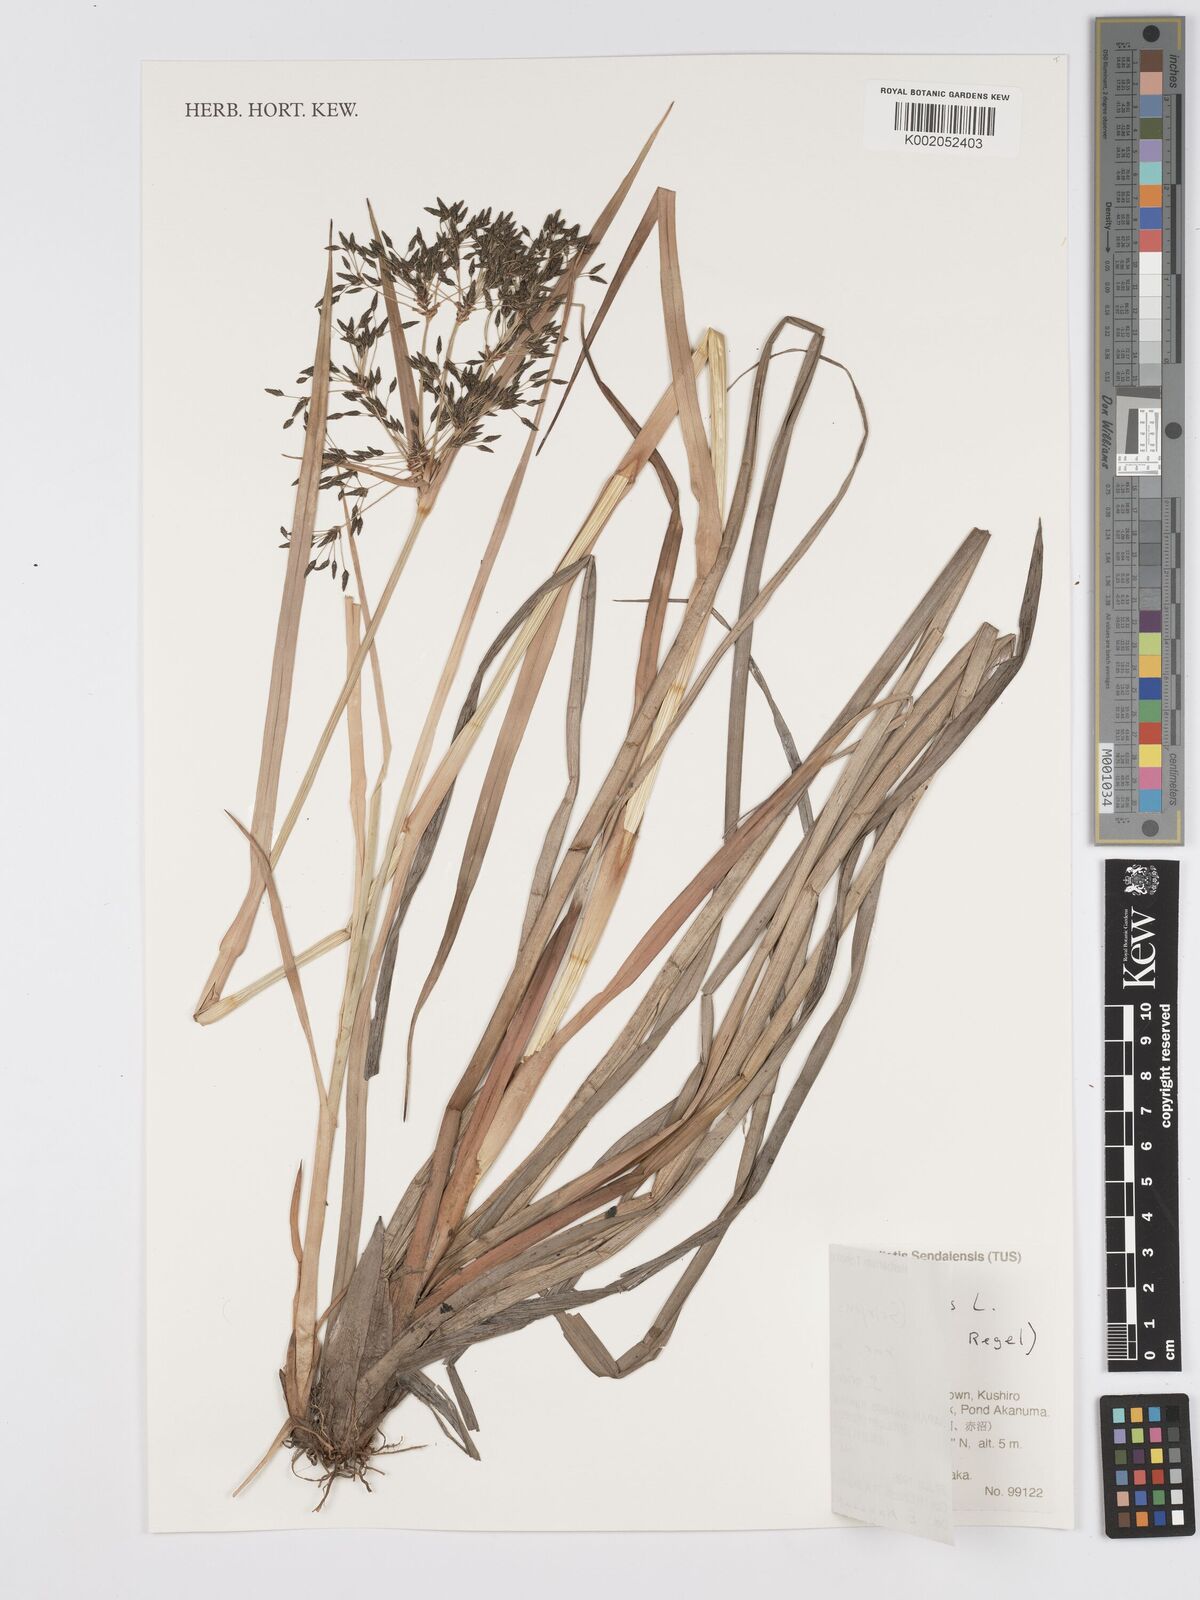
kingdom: Plantae
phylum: Tracheophyta
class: Liliopsida
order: Poales
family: Cyperaceae
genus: Scirpus
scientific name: Scirpus orientalis
